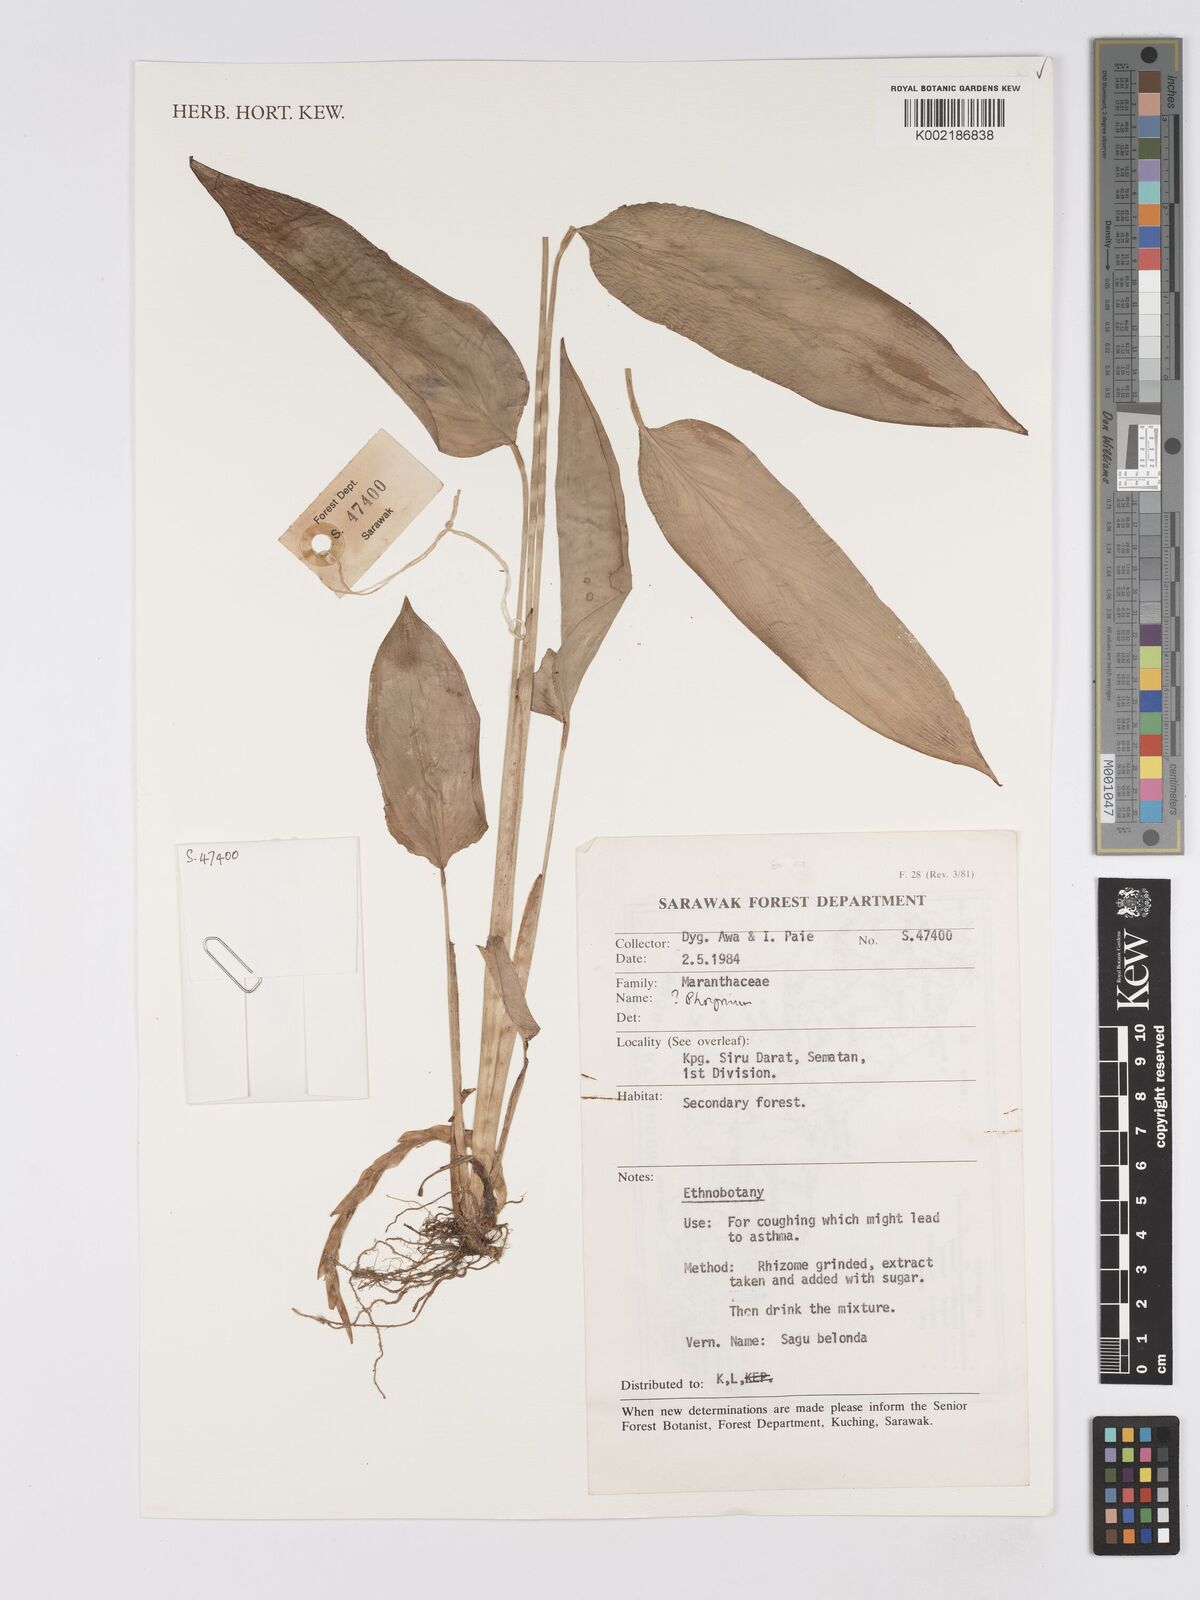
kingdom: Plantae
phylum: Tracheophyta
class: Liliopsida
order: Zingiberales
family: Marantaceae
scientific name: Marantaceae
